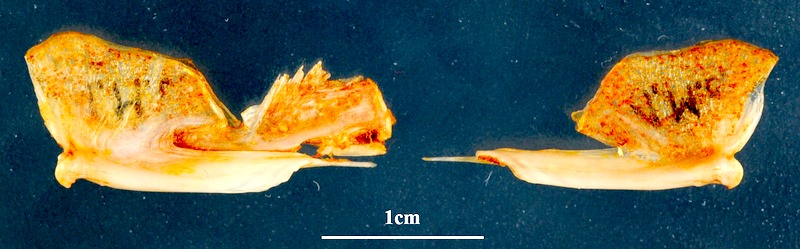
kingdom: Animalia
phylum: Chordata
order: Mugiliformes
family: Mugilidae
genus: Mugil
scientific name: Mugil cephalus
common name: Grey mullet
